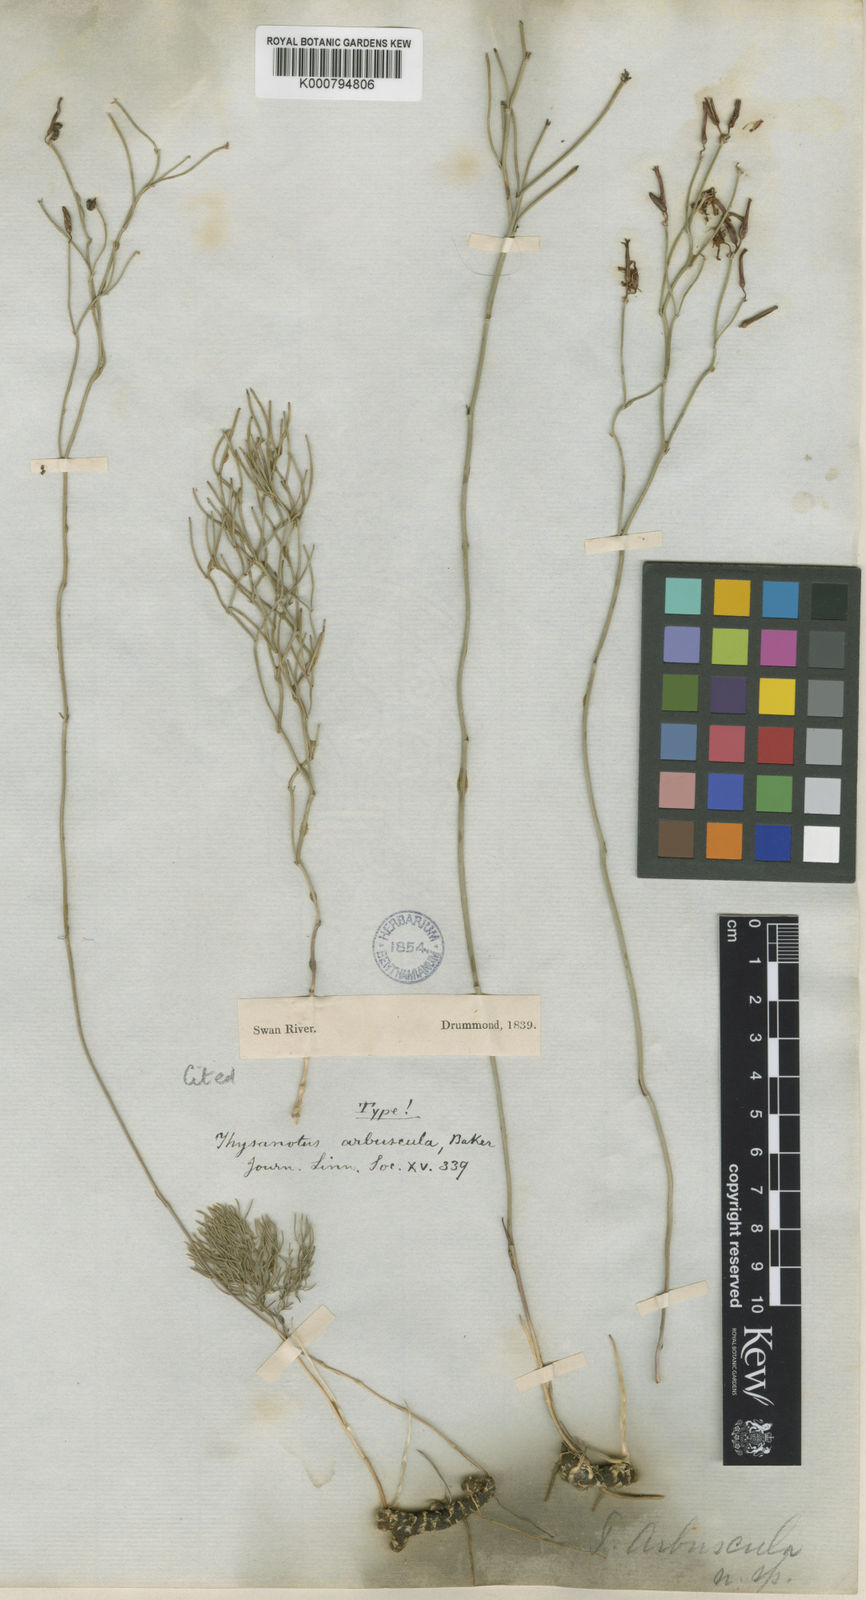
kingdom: Plantae
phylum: Tracheophyta
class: Liliopsida
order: Asparagales
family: Asparagaceae
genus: Thysanotus
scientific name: Thysanotus arbuscula
